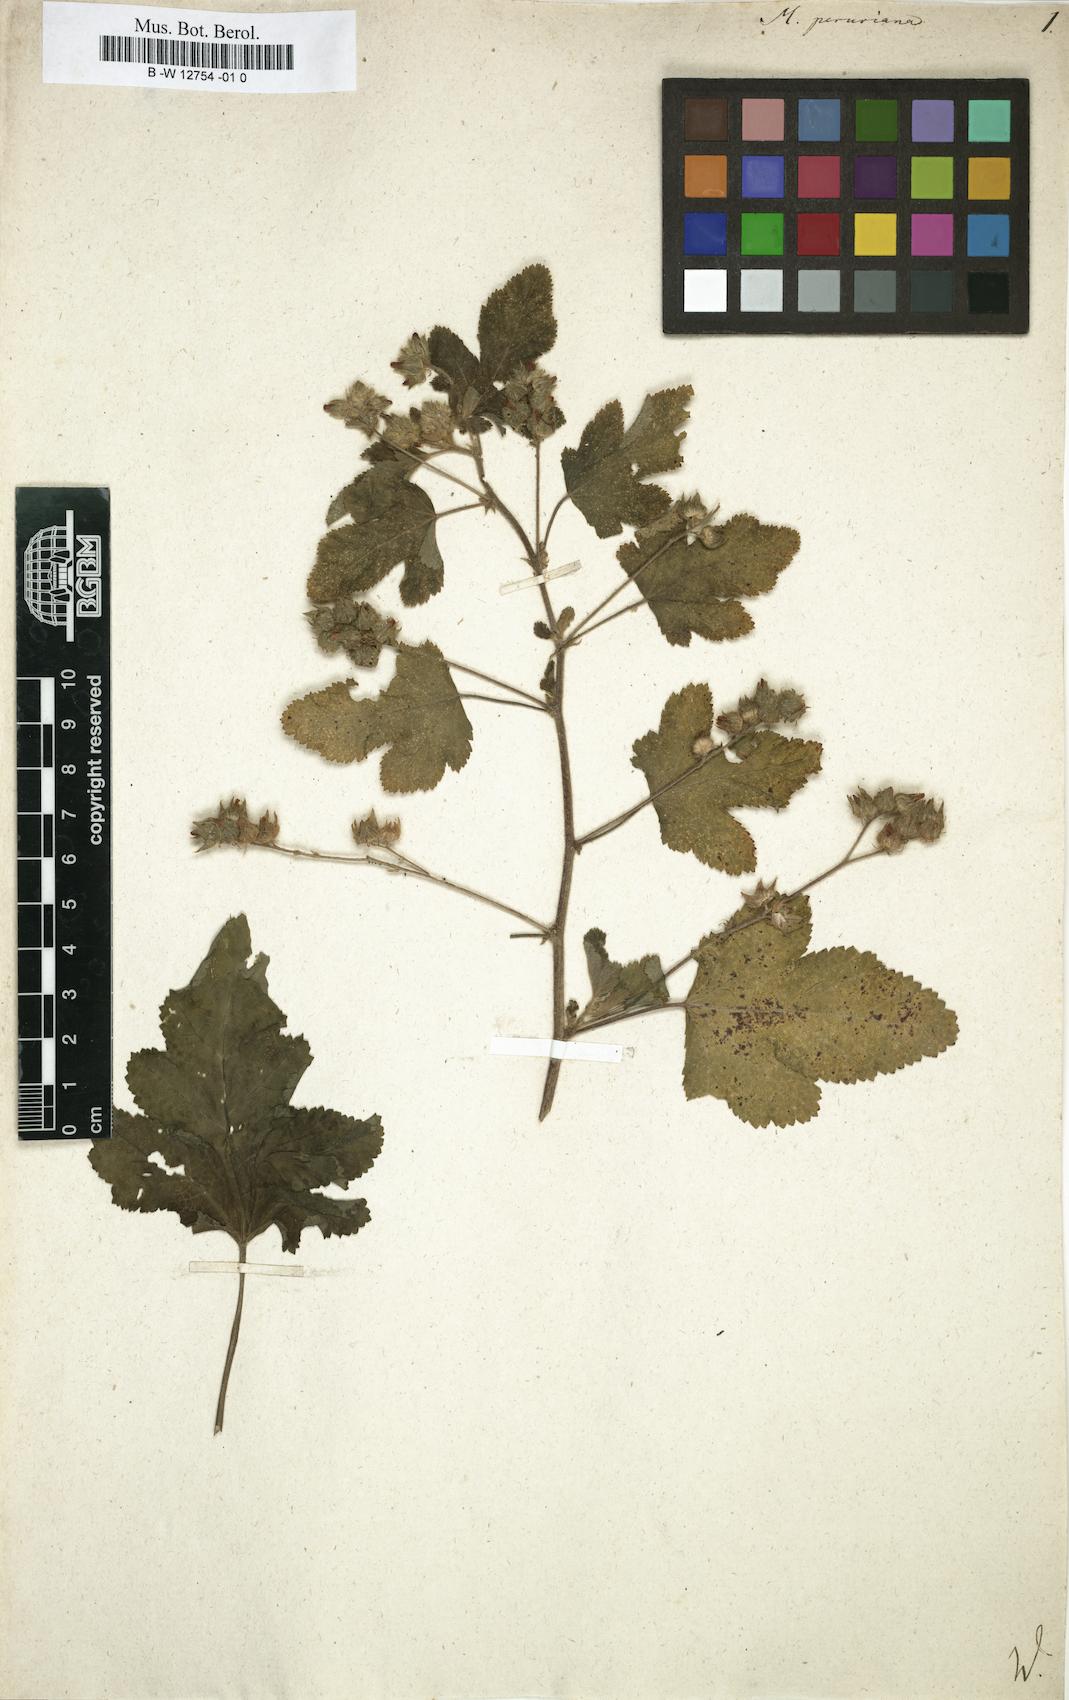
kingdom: Plantae
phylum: Tracheophyta
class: Magnoliopsida
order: Malvales
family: Malvaceae
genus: Fuertesimalva
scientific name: Fuertesimalva peruviana
